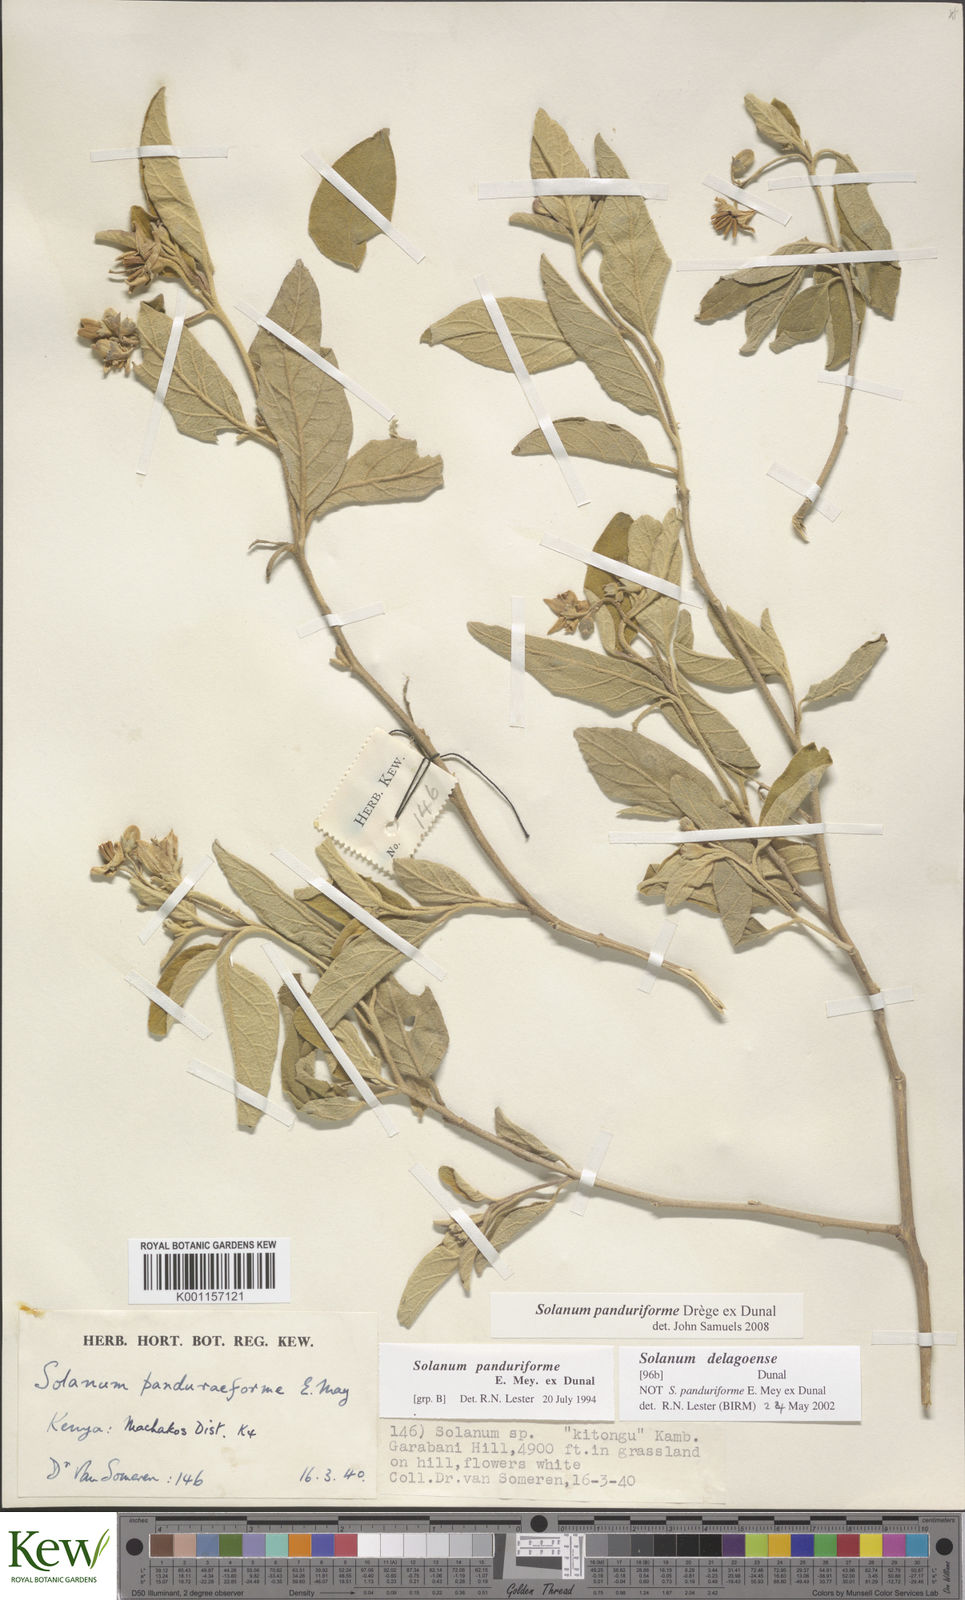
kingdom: Plantae
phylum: Tracheophyta
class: Magnoliopsida
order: Solanales
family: Solanaceae
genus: Solanum
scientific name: Solanum campylacanthum
